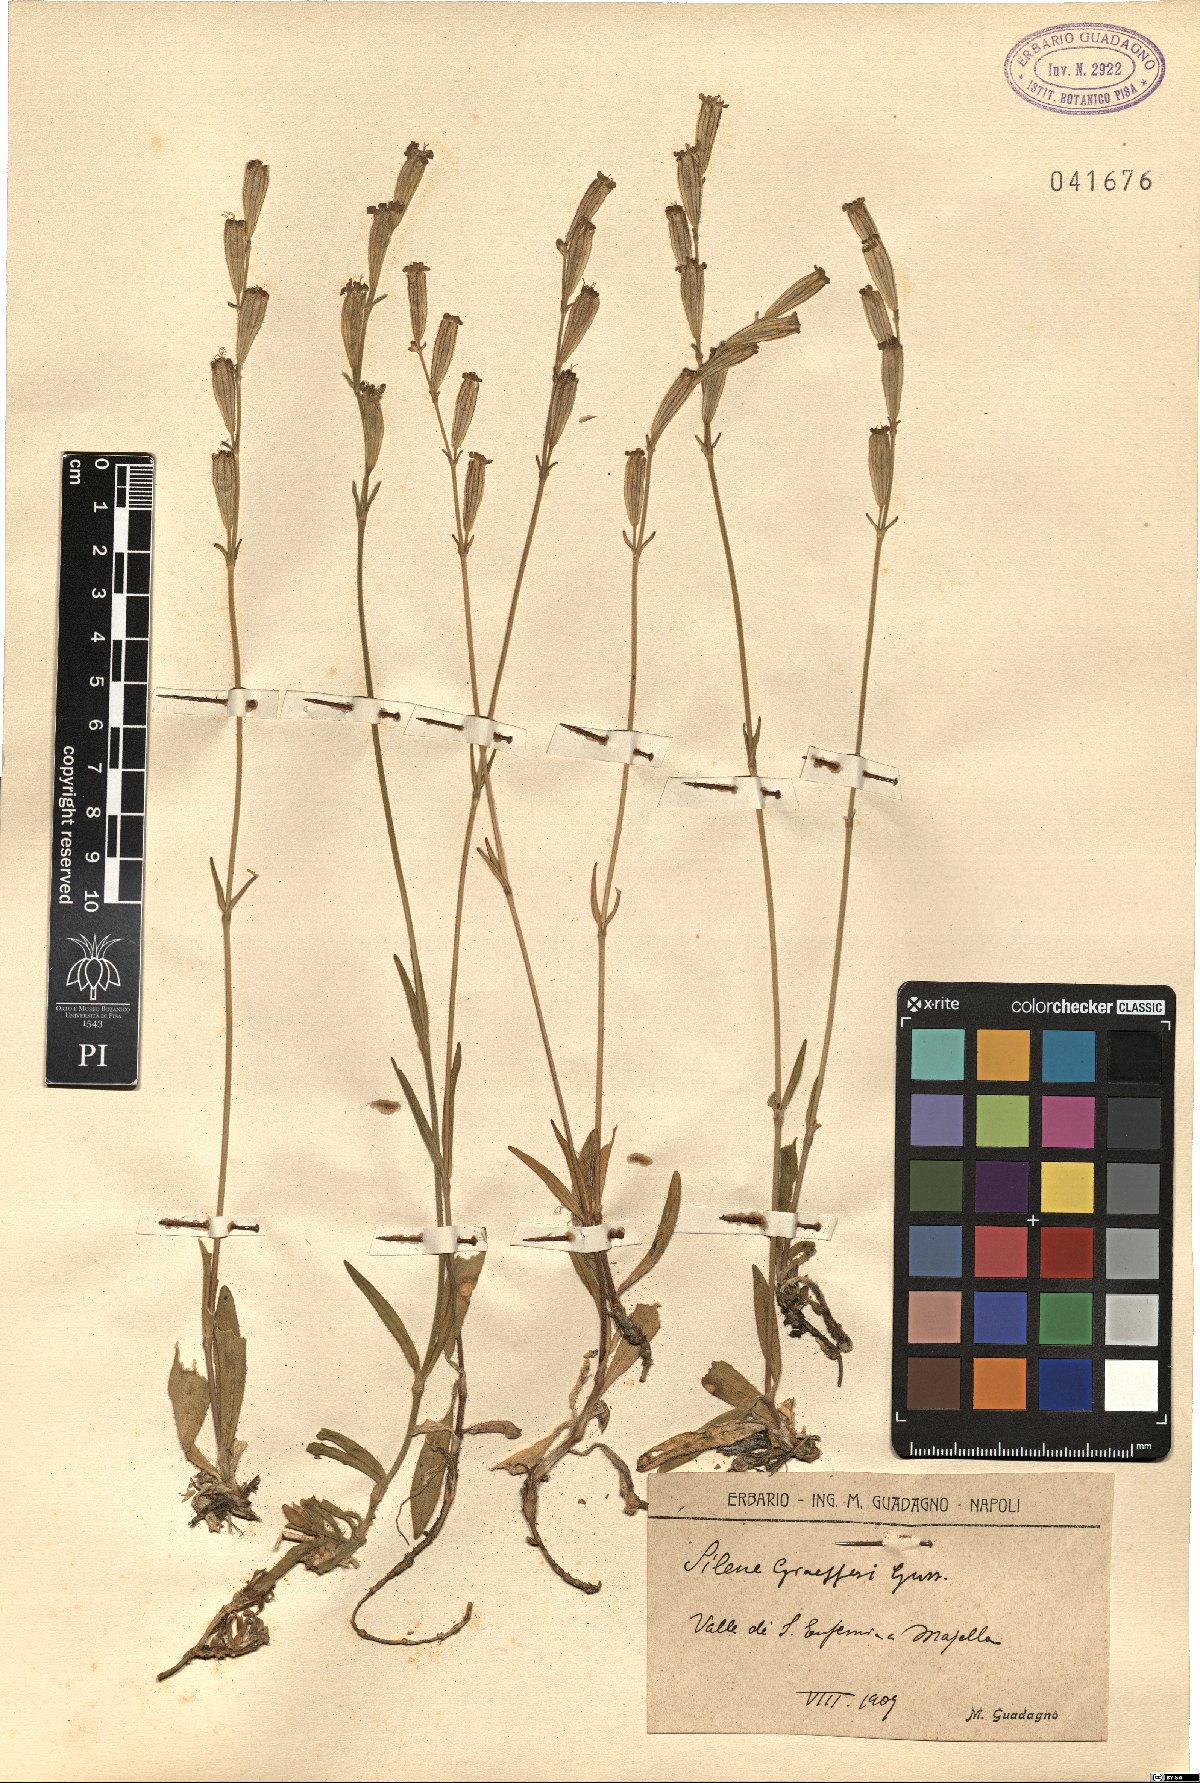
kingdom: Plantae
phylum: Tracheophyta
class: Magnoliopsida
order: Caryophyllales
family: Caryophyllaceae
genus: Silene
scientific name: Silene ciliata
